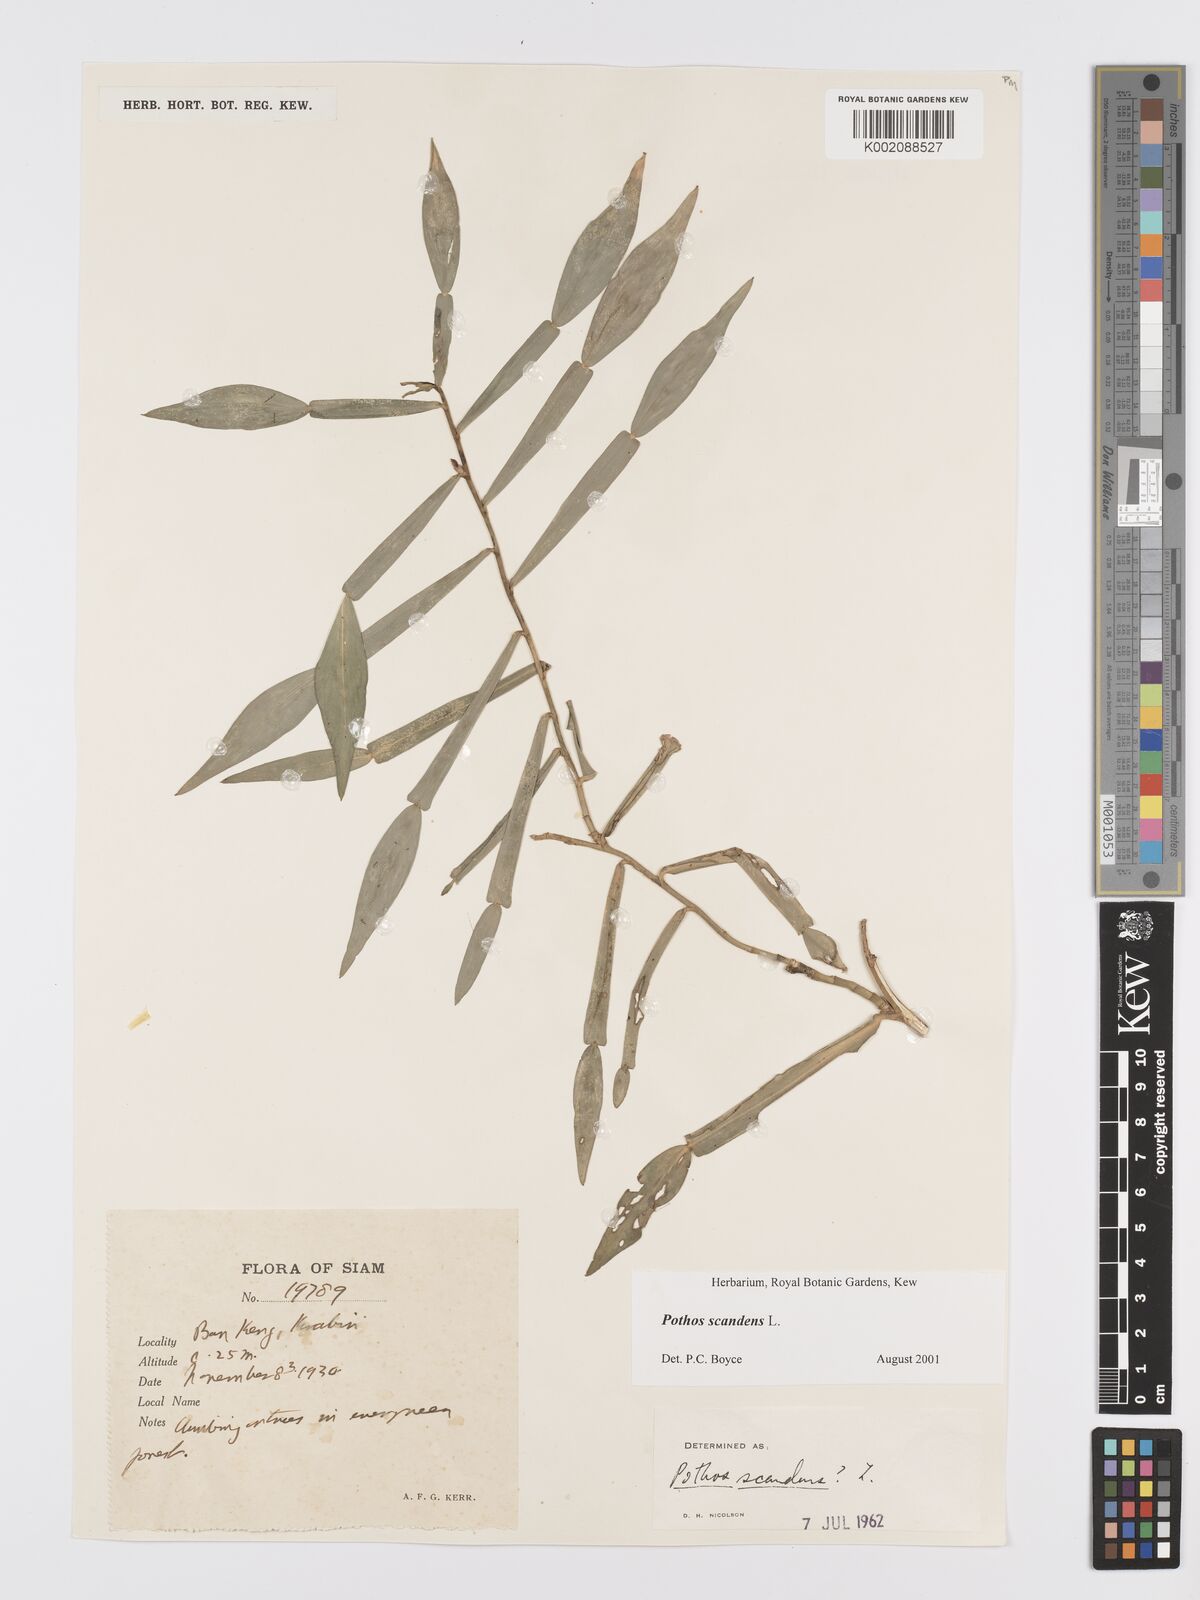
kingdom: Plantae
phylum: Tracheophyta
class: Liliopsida
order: Alismatales
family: Araceae
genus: Pothos
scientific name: Pothos scandens
